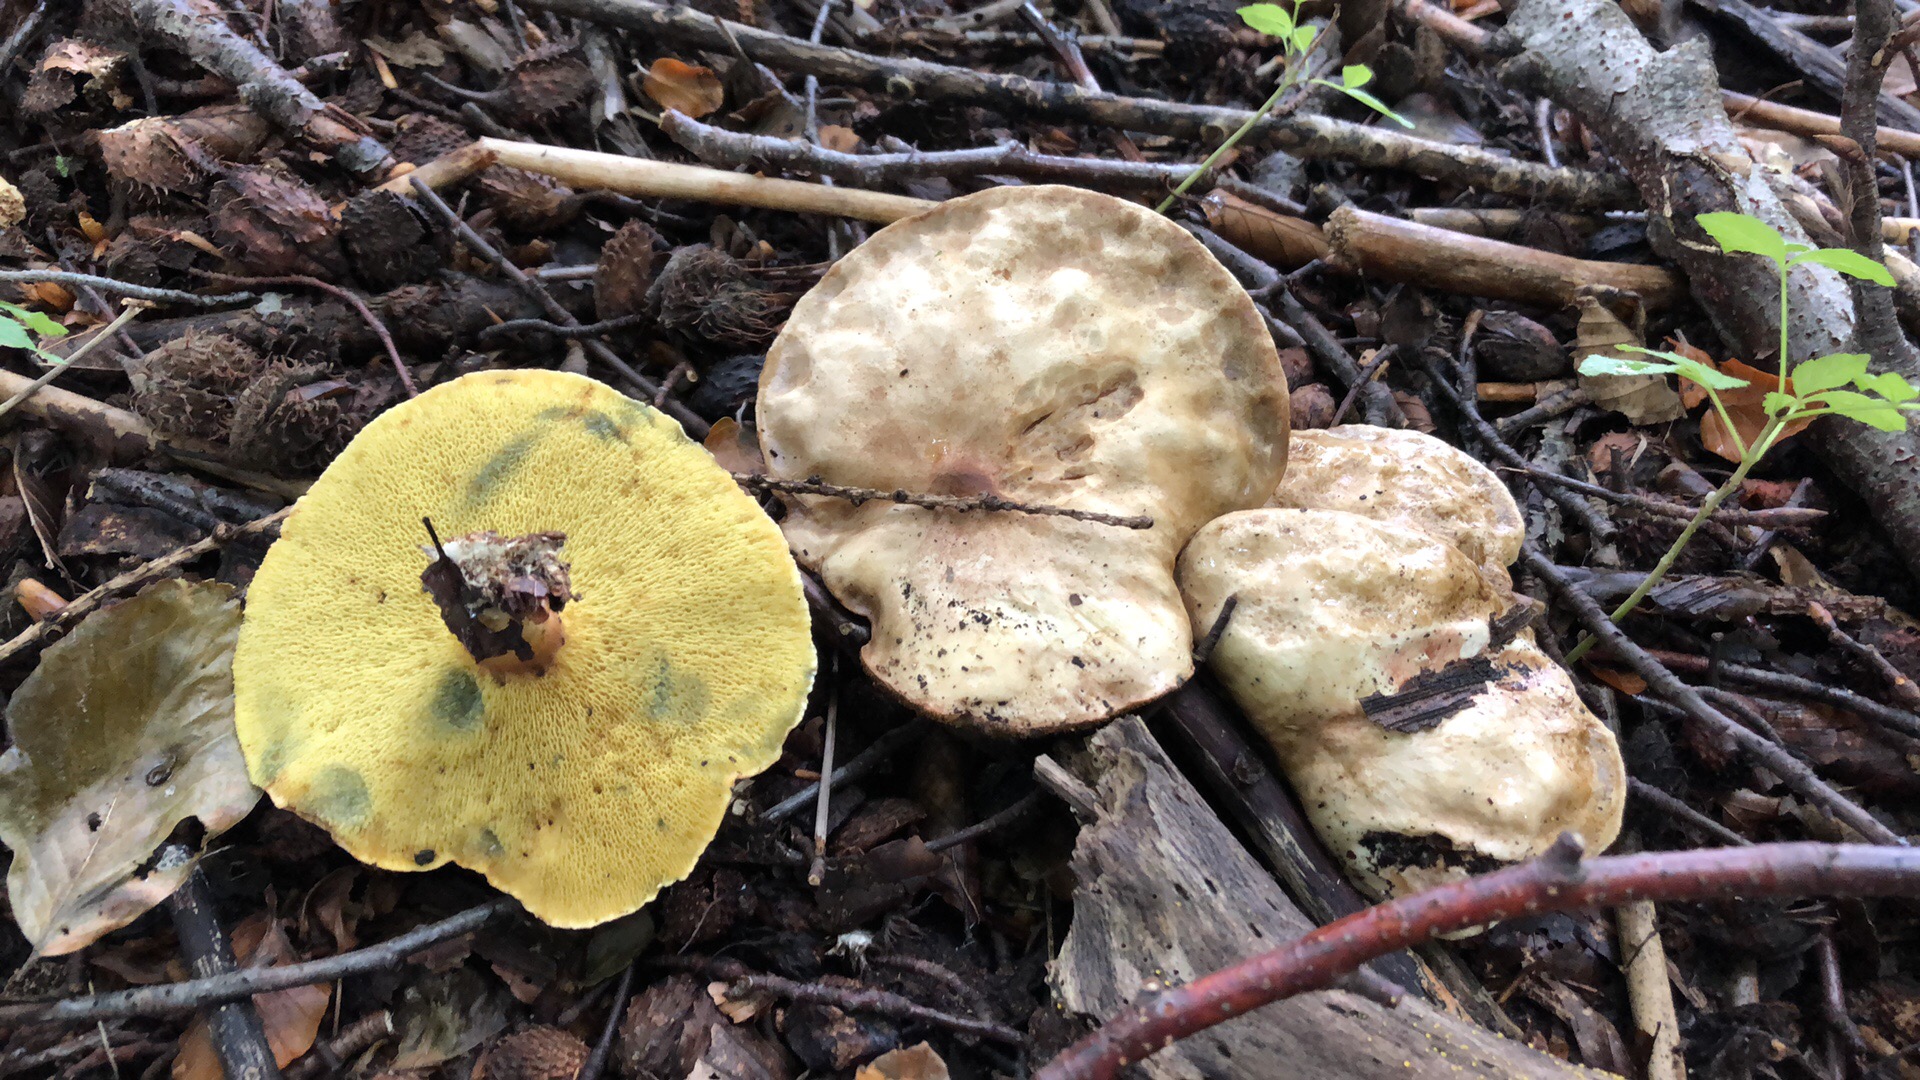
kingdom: Fungi
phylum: Basidiomycota
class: Agaricomycetes
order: Boletales
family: Paxillaceae
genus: Gyrodon
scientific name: Gyrodon lividus
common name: ellerørhat
